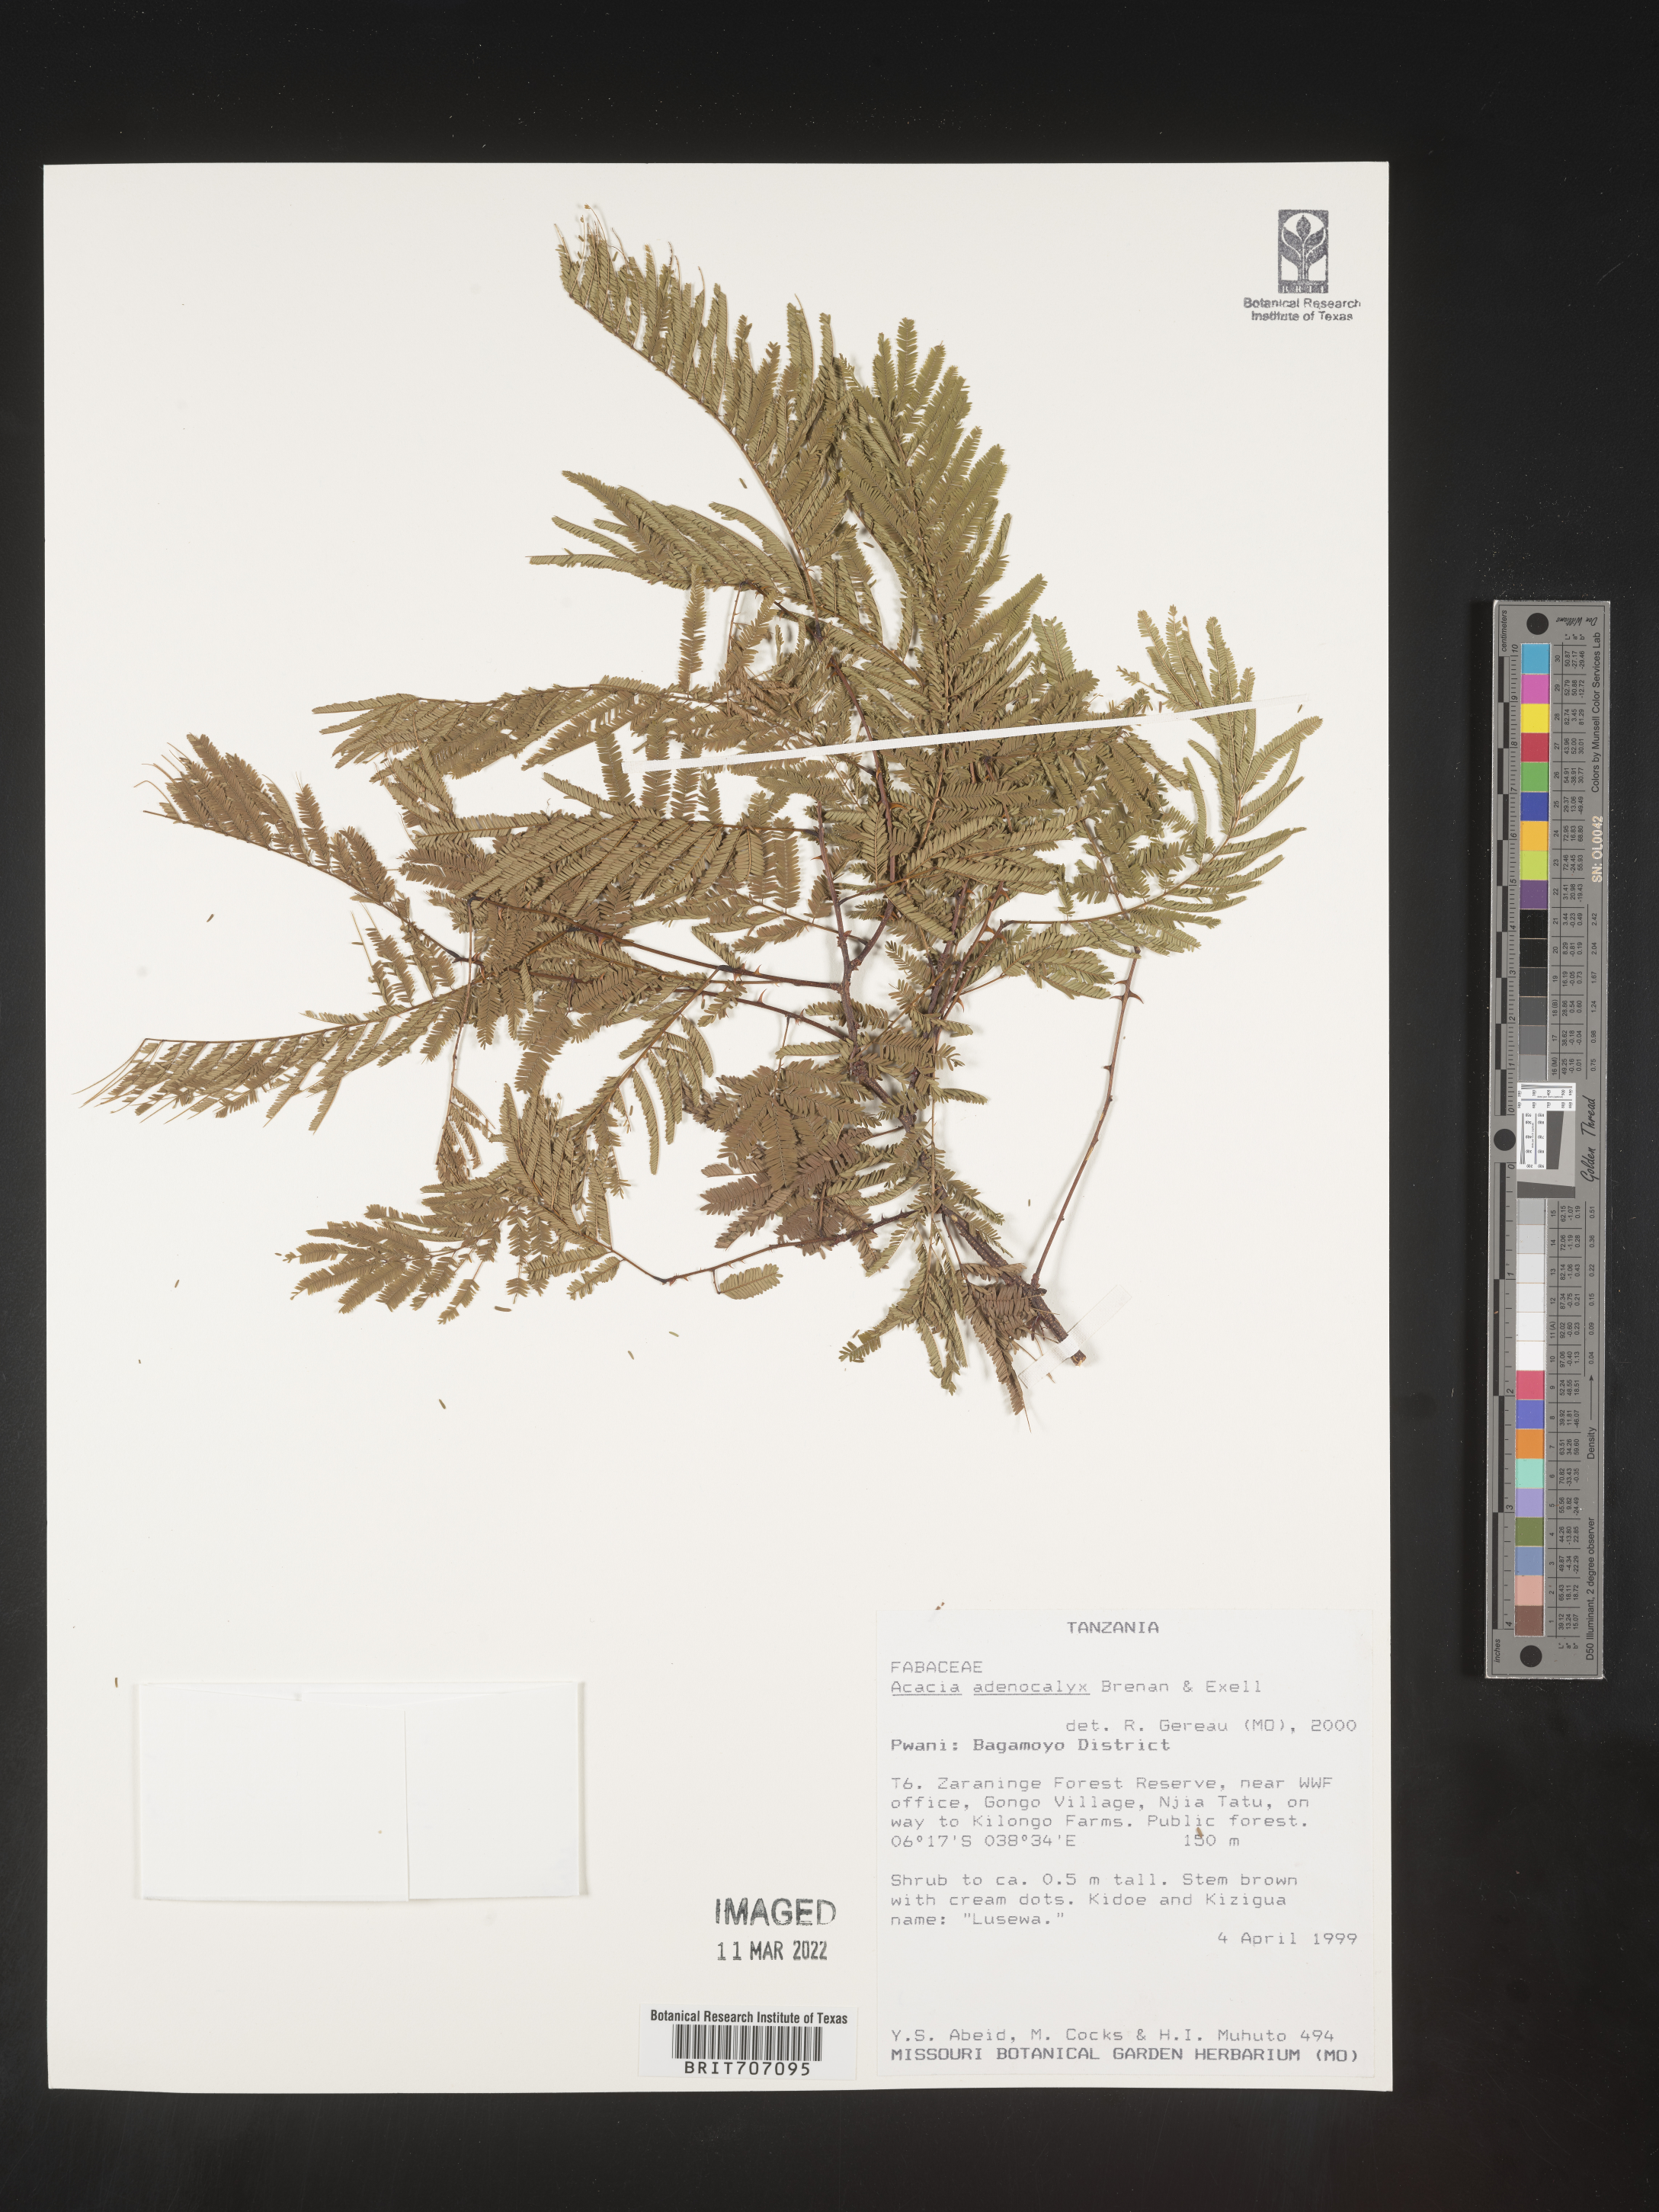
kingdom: Plantae
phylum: Tracheophyta
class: Magnoliopsida
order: Fabales
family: Fabaceae
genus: Acacia
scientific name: Acacia
